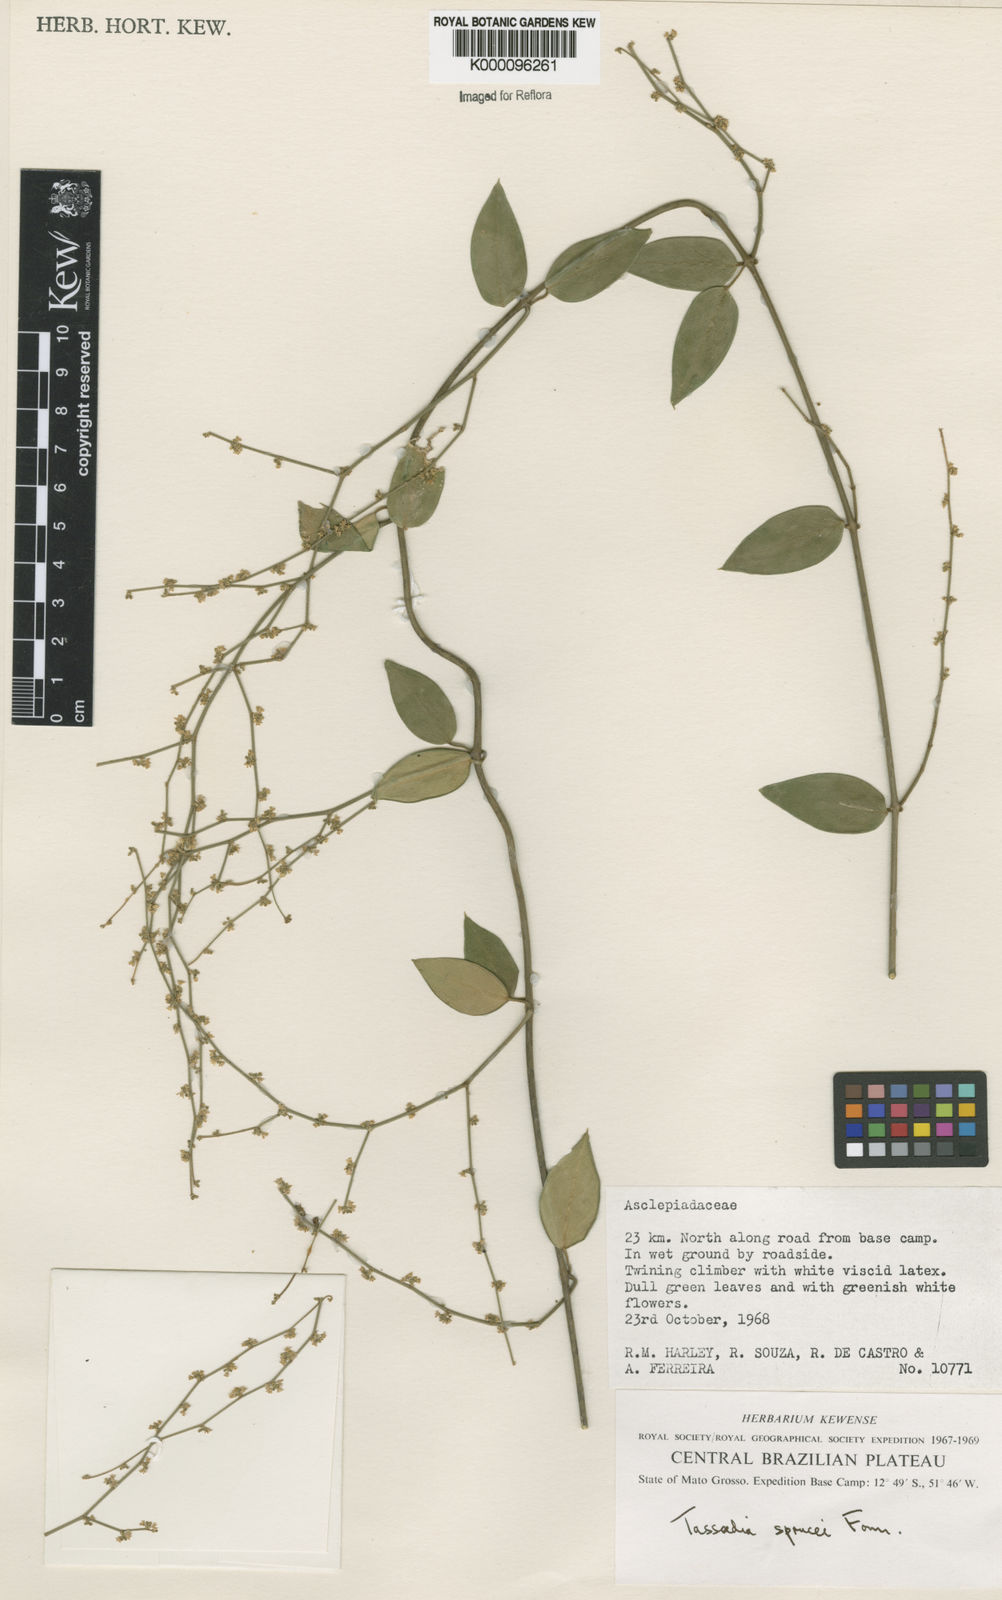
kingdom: Plantae
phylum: Tracheophyta
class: Magnoliopsida
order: Gentianales
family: Apocynaceae
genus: Tassadia
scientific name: Tassadia propinqua
